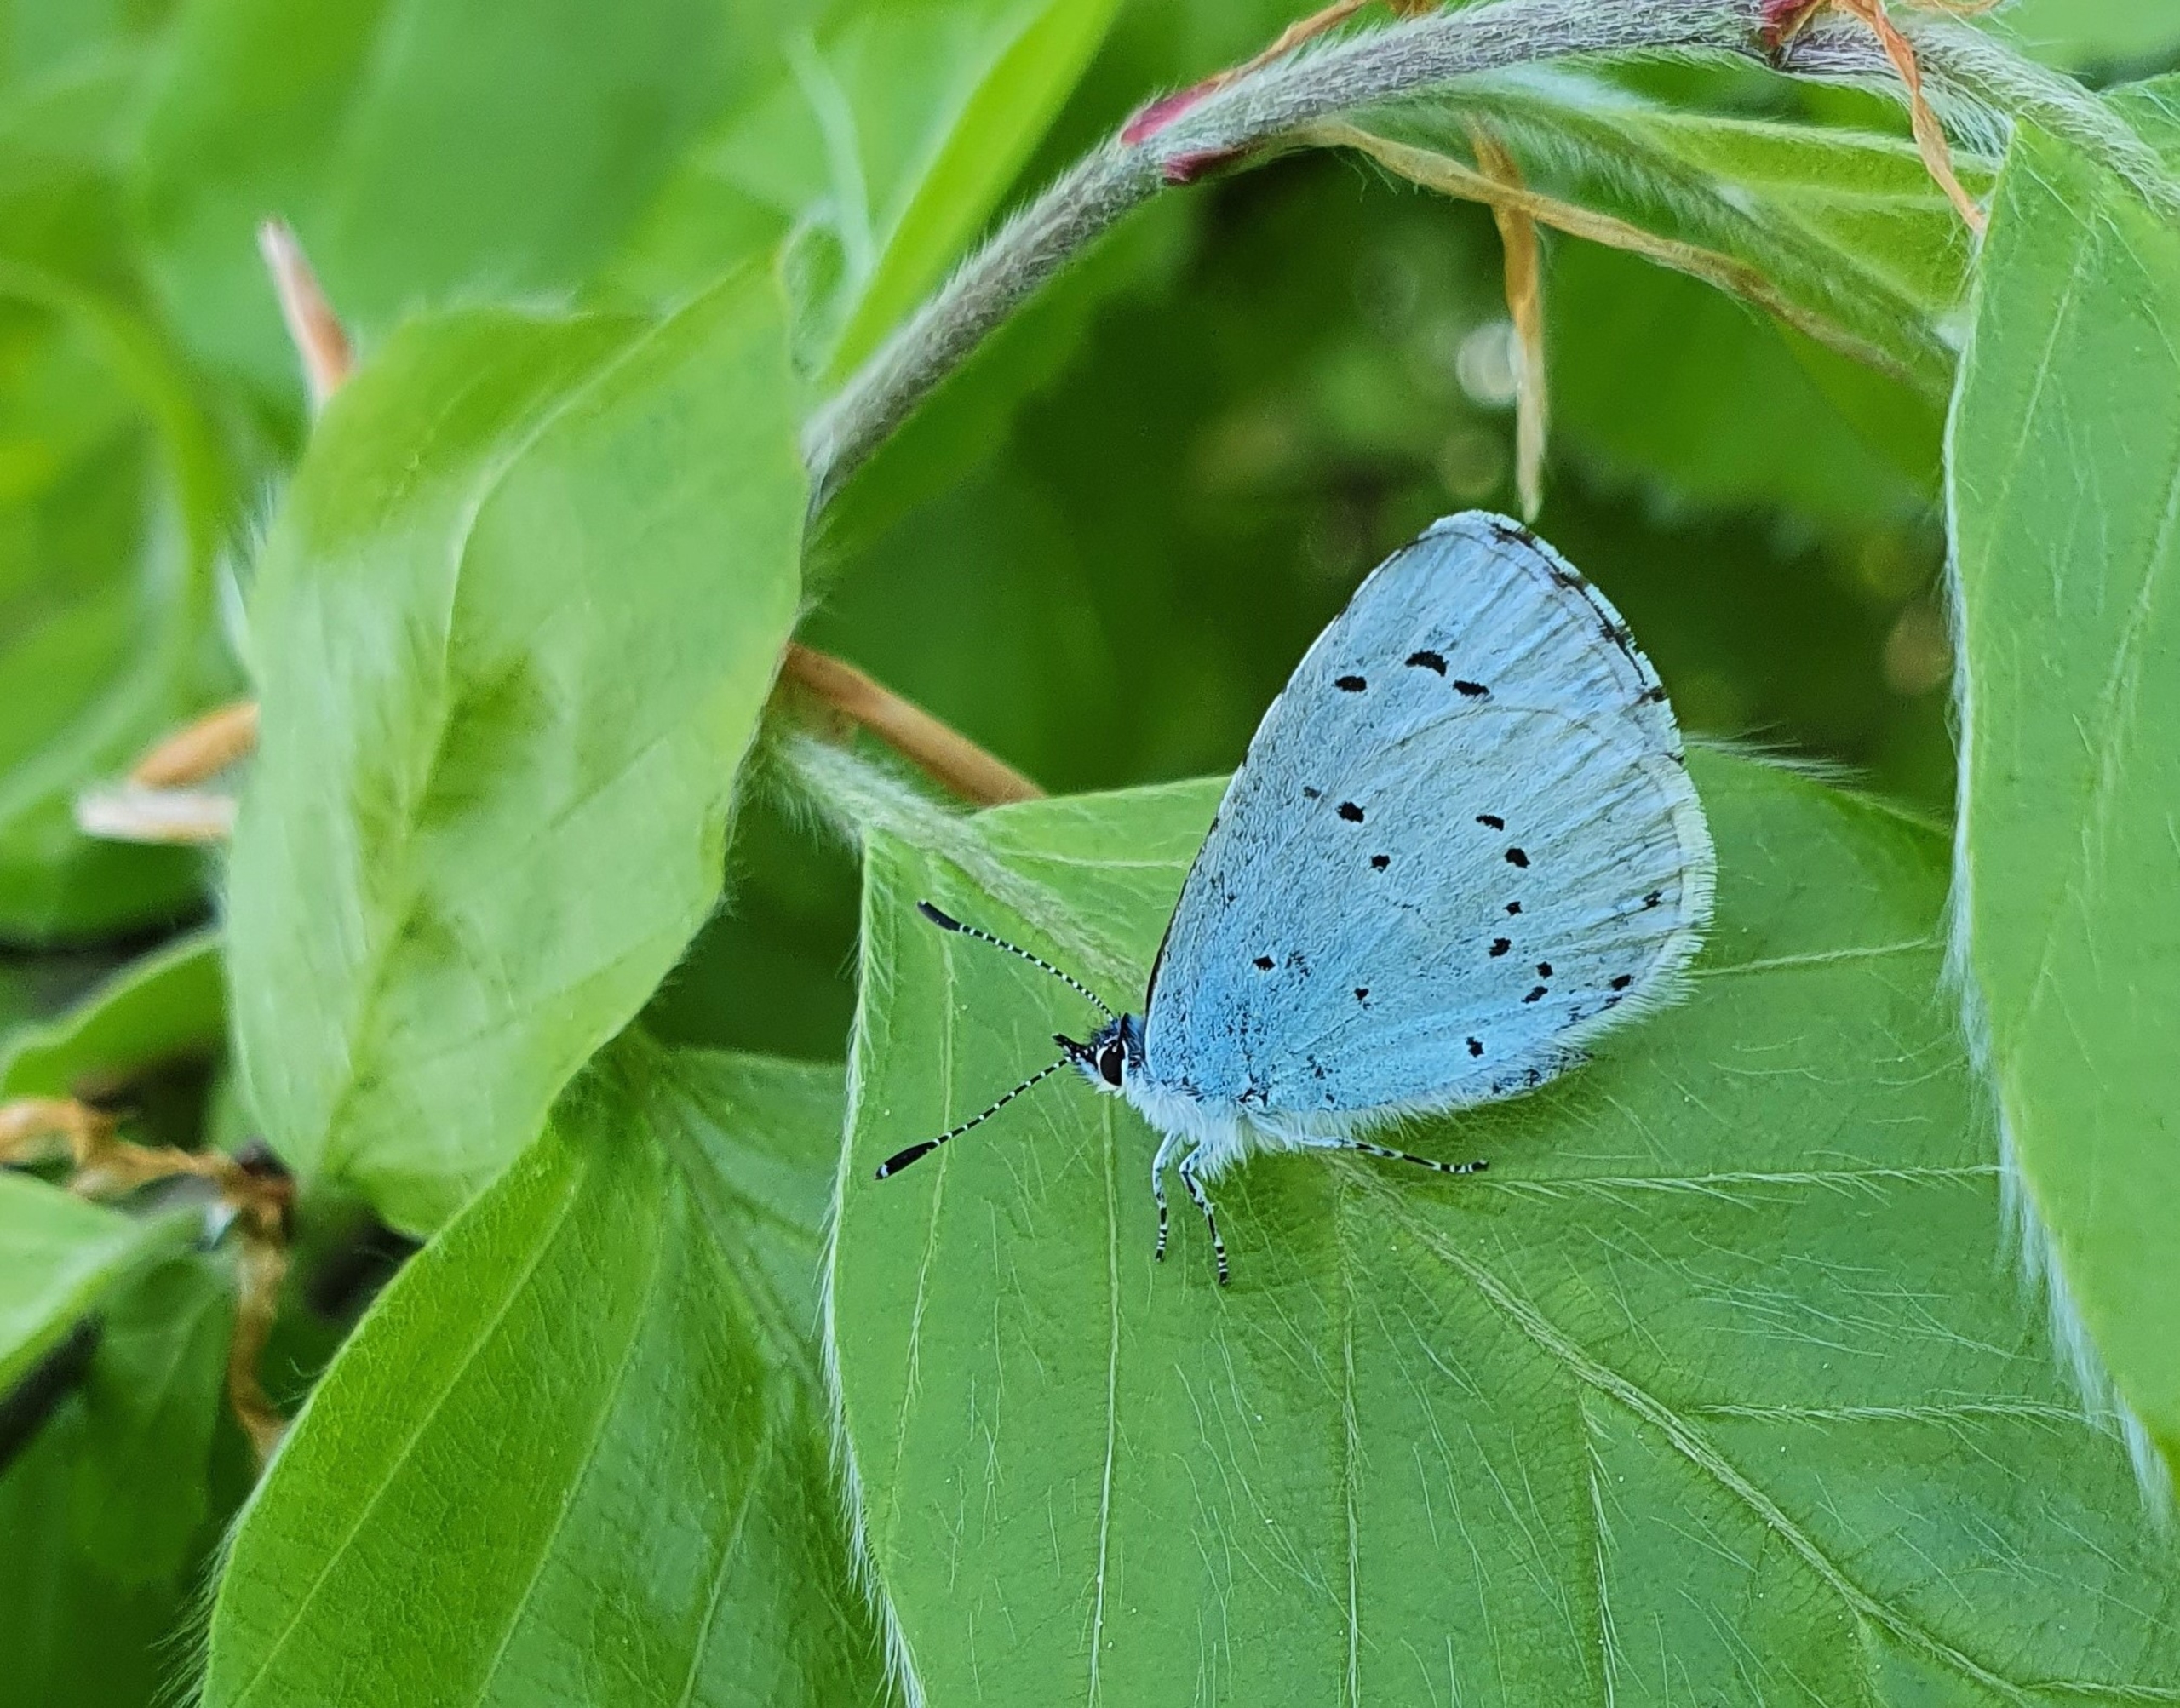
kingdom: Animalia
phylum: Arthropoda
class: Insecta
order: Lepidoptera
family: Lycaenidae
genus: Celastrina
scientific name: Celastrina argiolus
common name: Skovblåfugl
